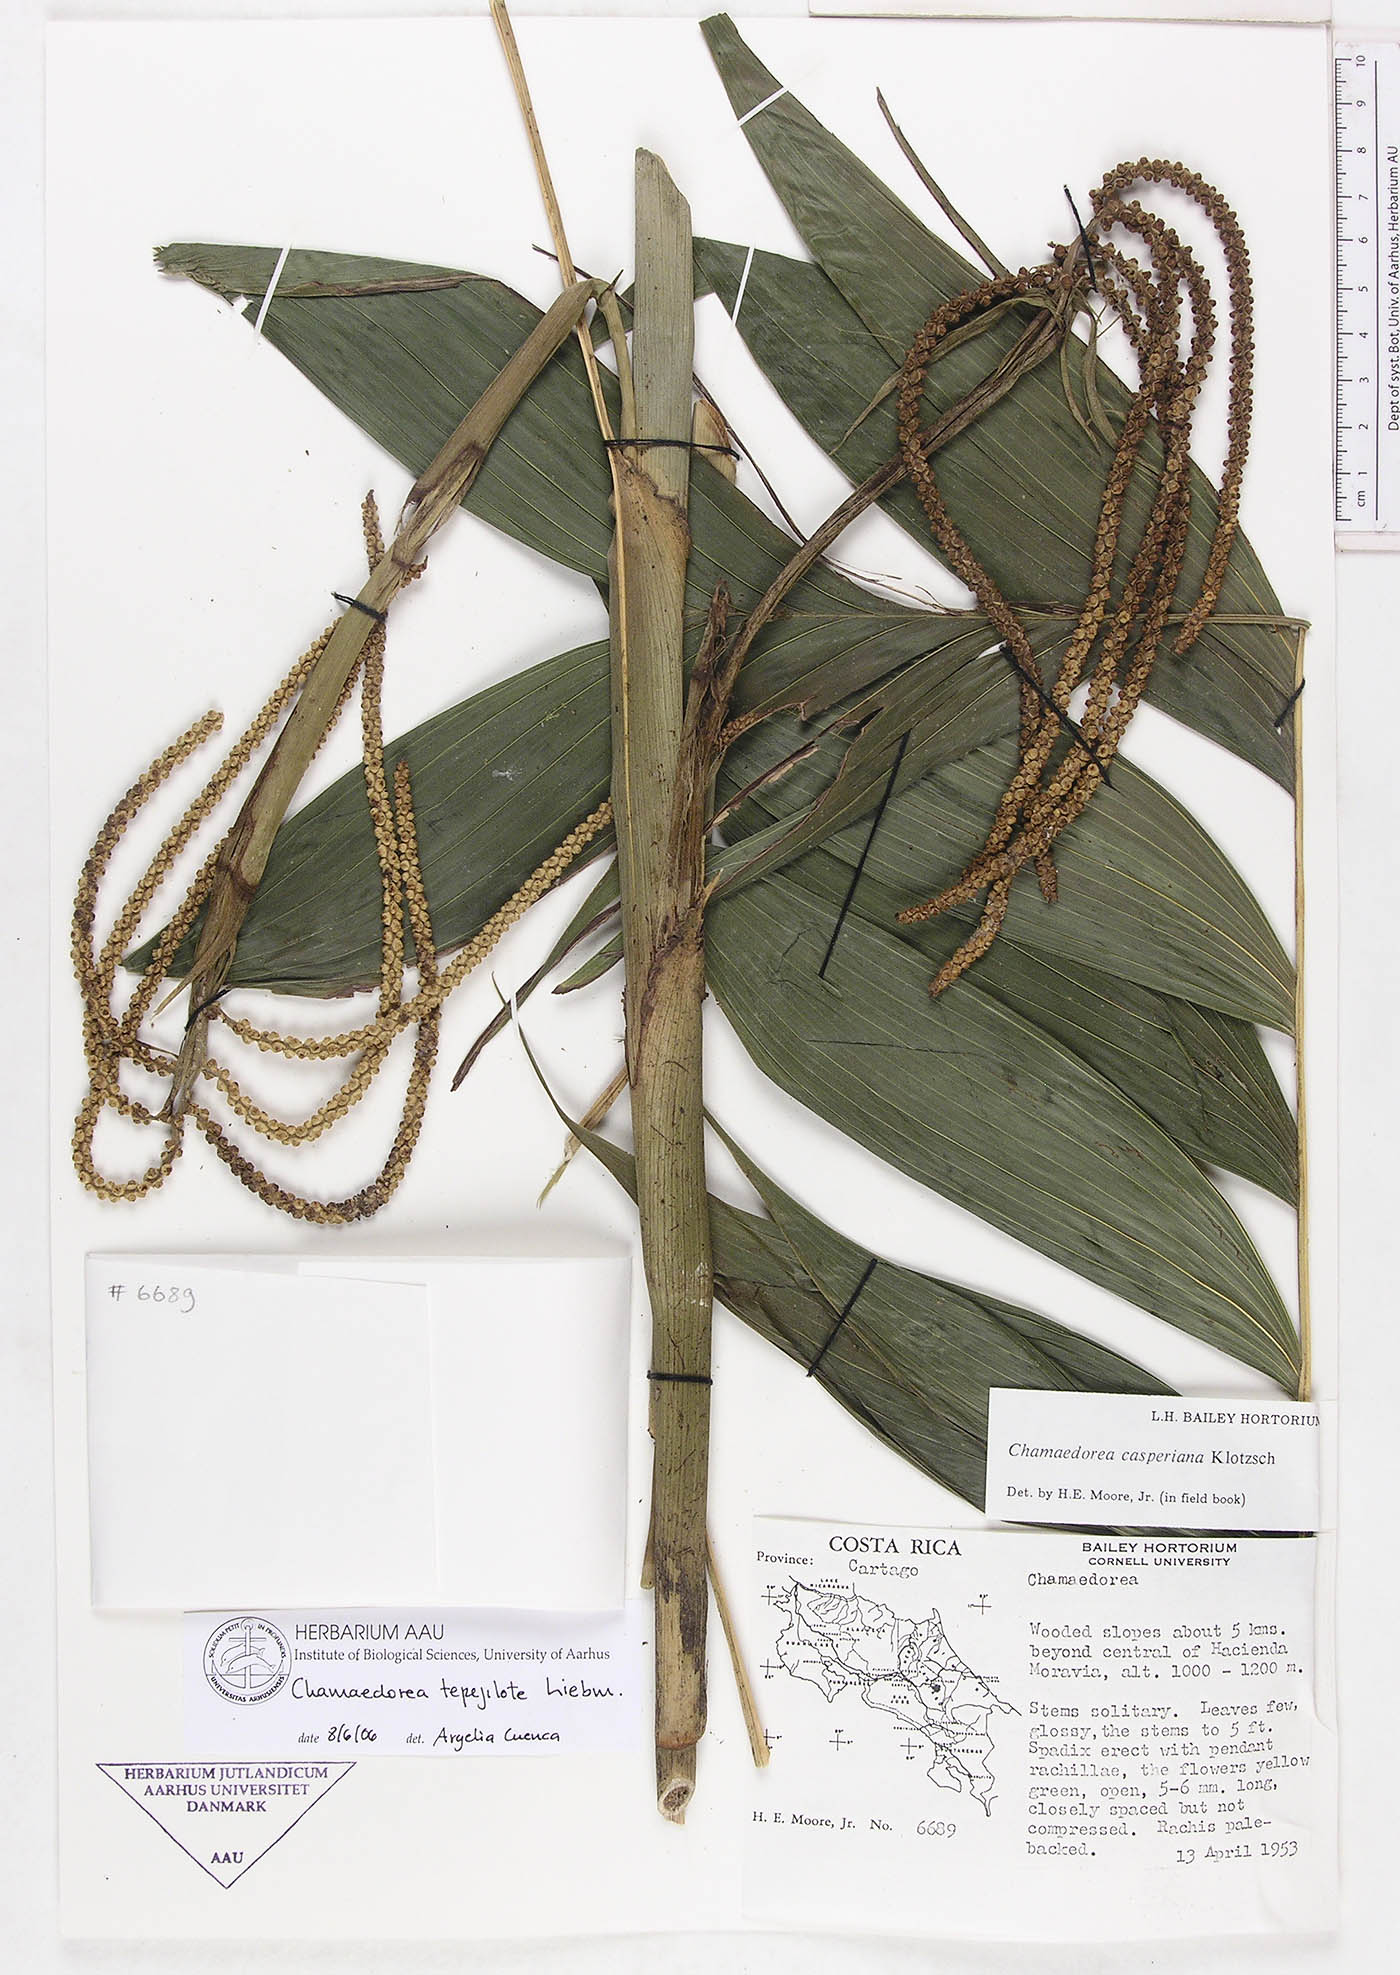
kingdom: Plantae
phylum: Tracheophyta
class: Liliopsida
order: Arecales
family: Arecaceae
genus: Chamaedorea
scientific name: Chamaedorea tepejilote
